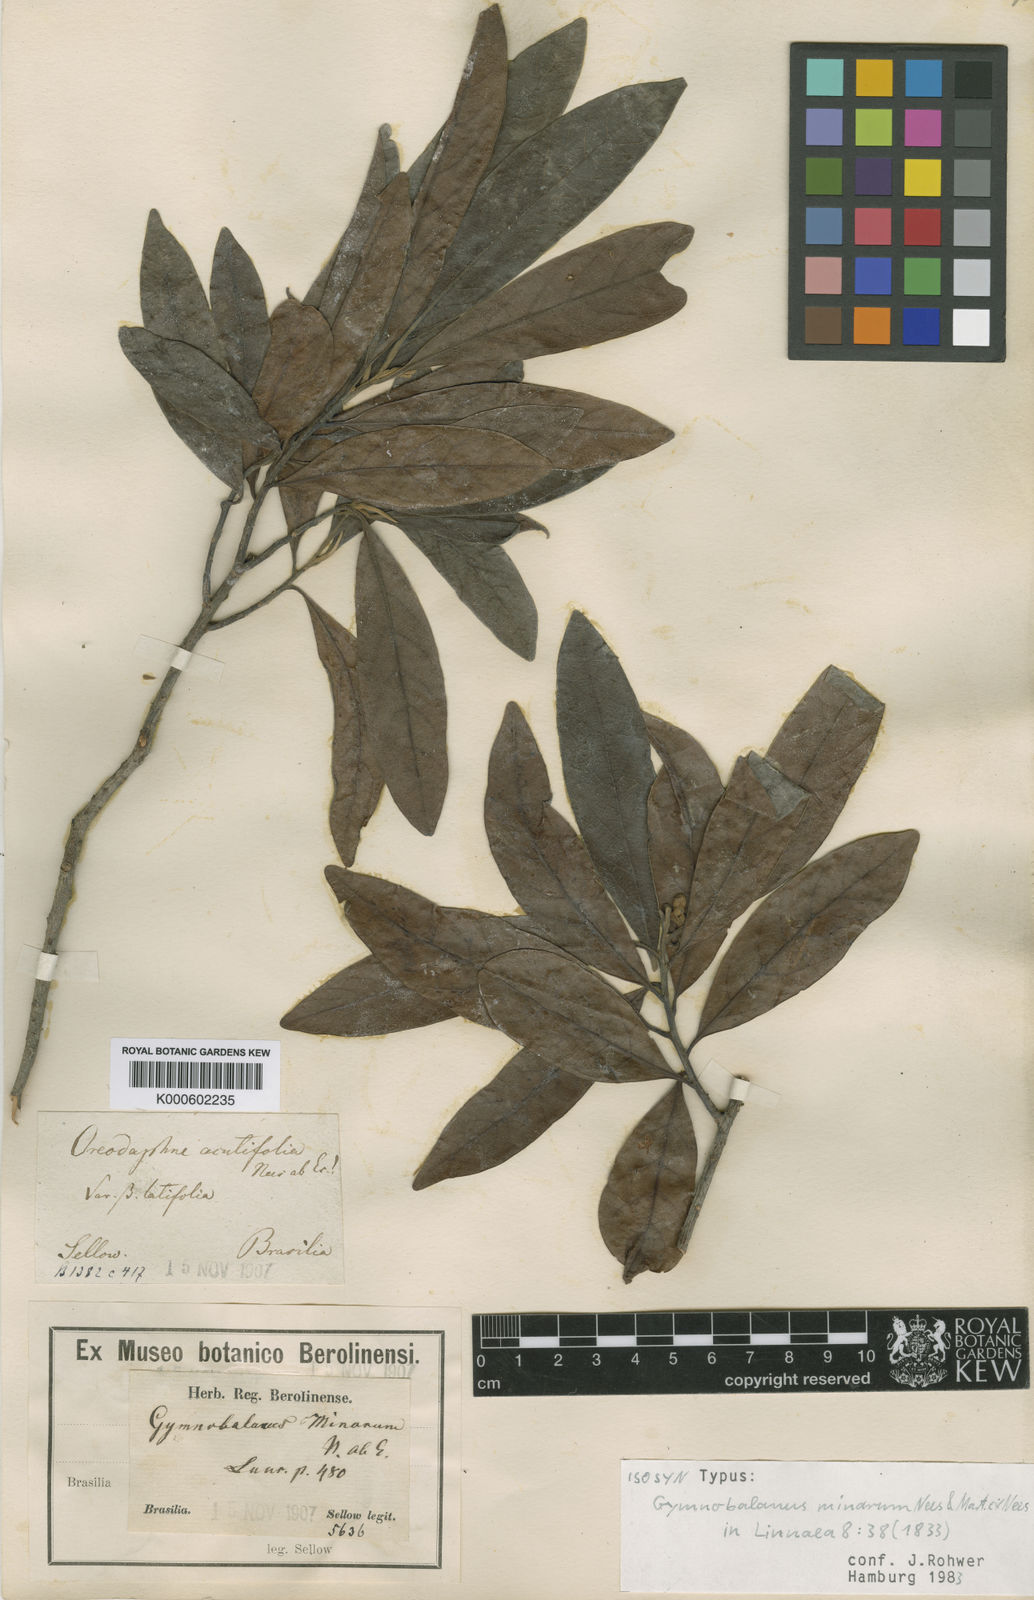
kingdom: Plantae
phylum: Tracheophyta
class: Magnoliopsida
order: Laurales
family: Lauraceae
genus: Ocotea
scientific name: Ocotea minarum
